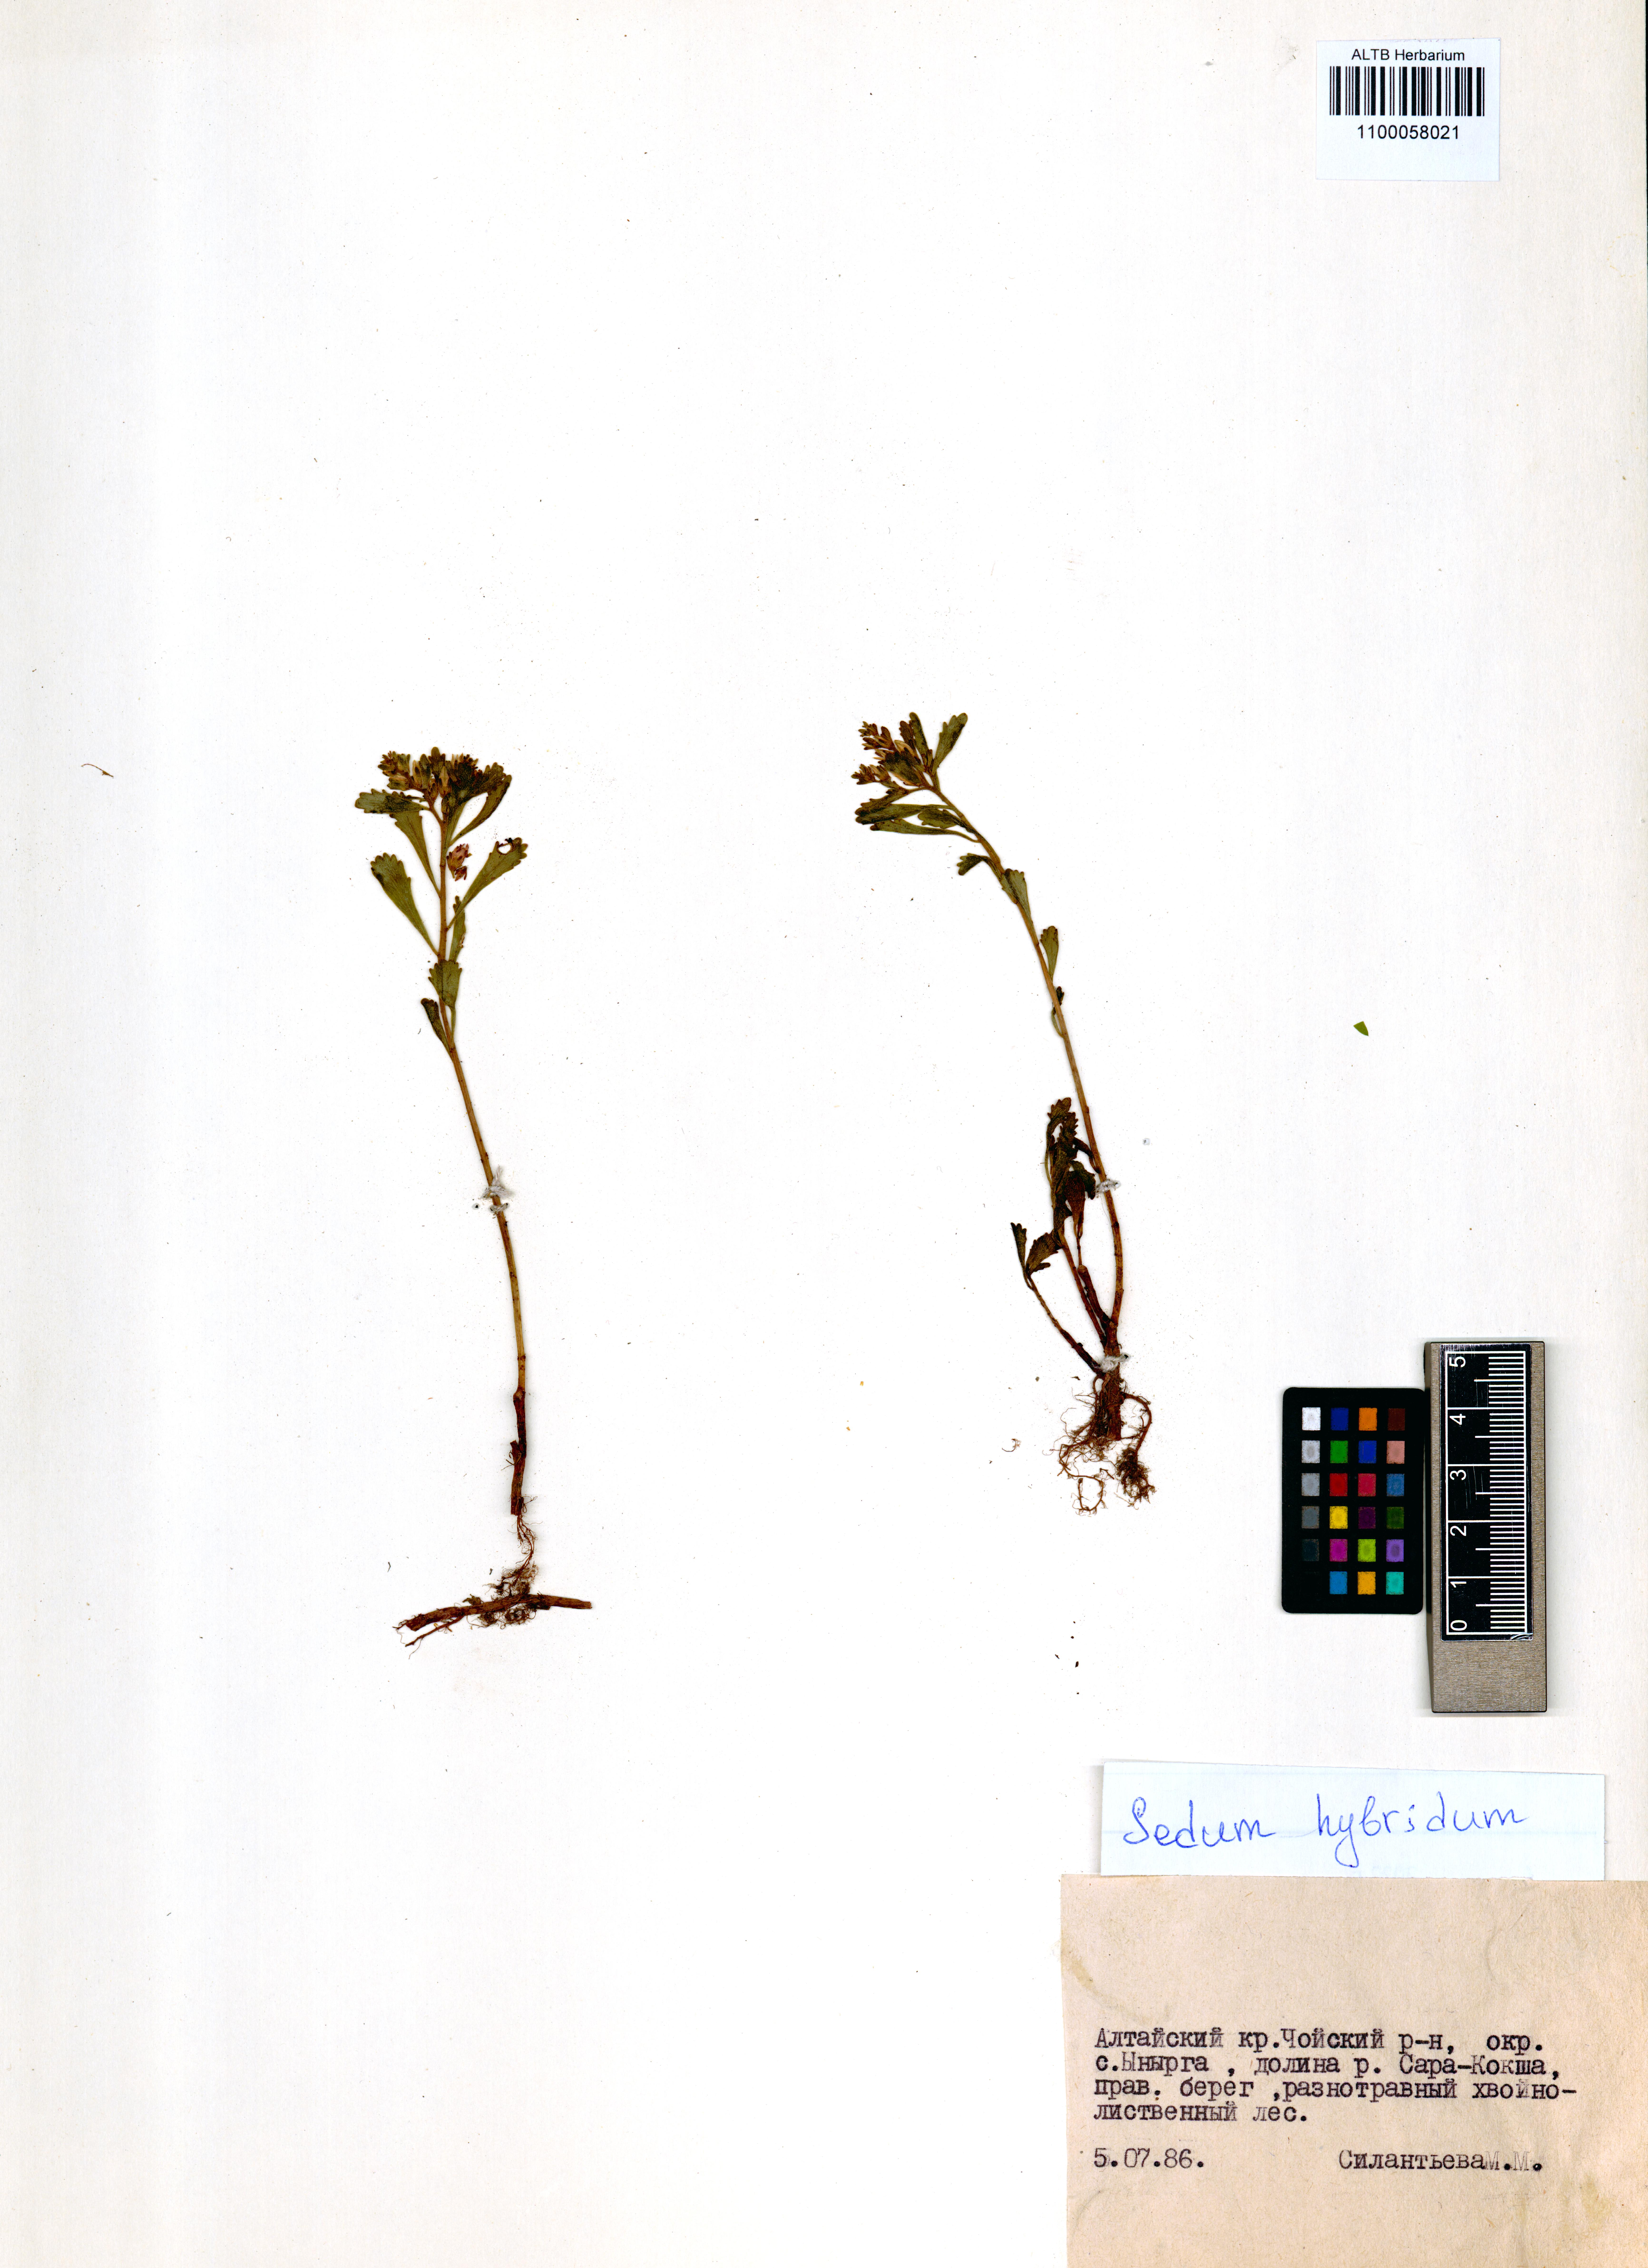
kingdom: Plantae
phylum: Tracheophyta
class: Magnoliopsida
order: Saxifragales
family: Crassulaceae
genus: Phedimus
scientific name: Phedimus hybridus
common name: Hybrid stonecrop
